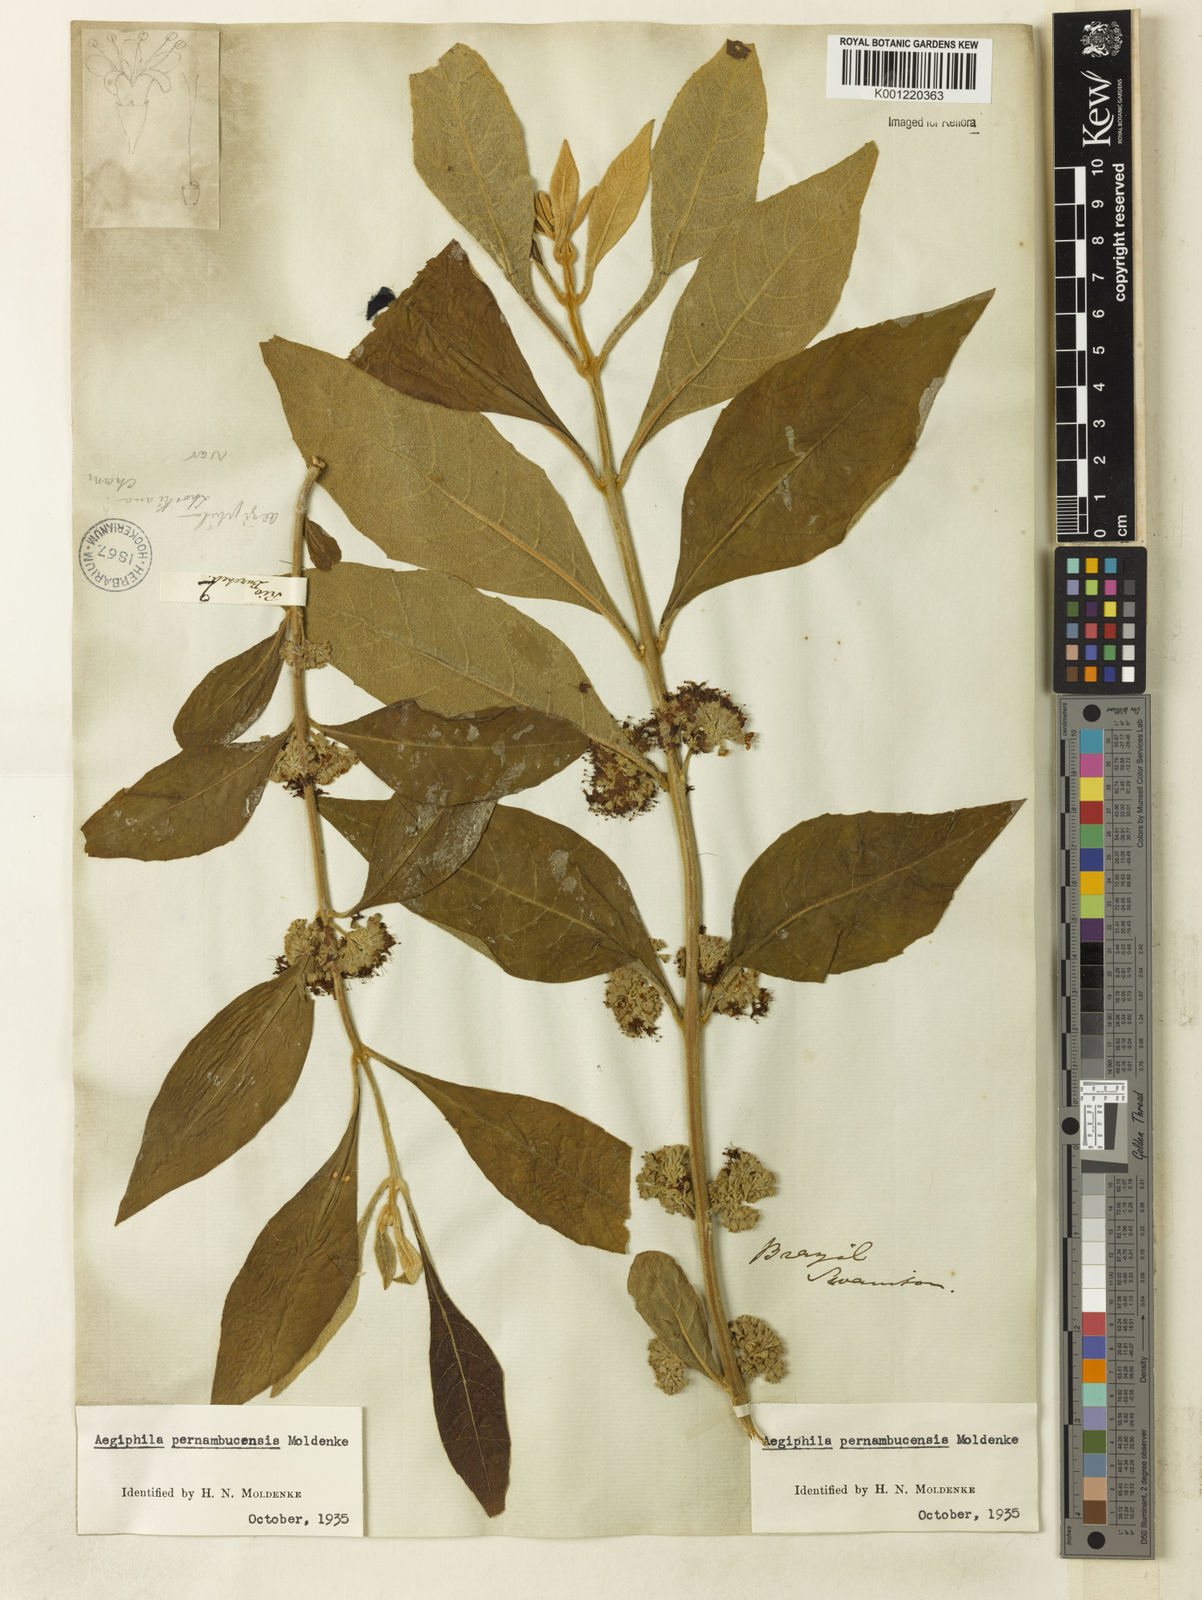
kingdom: Plantae
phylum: Tracheophyta
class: Magnoliopsida
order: Lamiales
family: Lamiaceae
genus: Aegiphila
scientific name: Aegiphila pernambucensis
